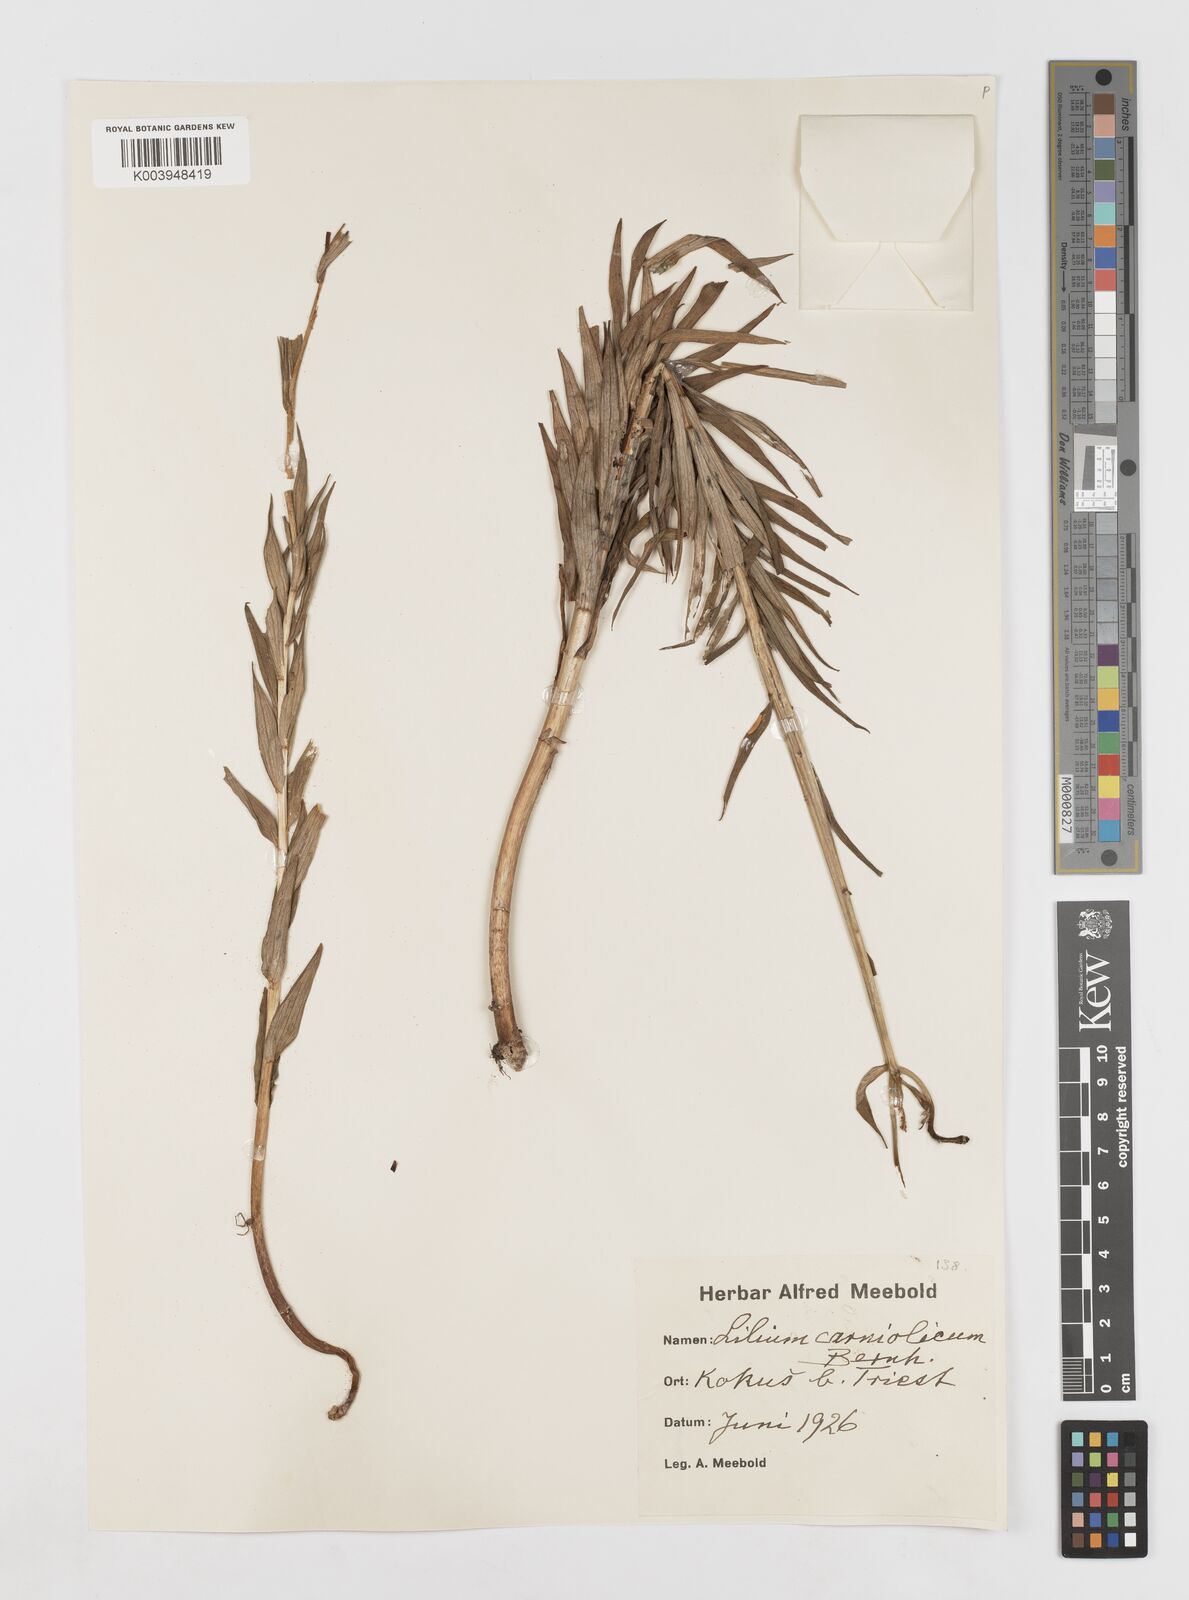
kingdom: Plantae
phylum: Tracheophyta
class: Liliopsida
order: Liliales
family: Liliaceae
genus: Lilium
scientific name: Lilium carniolicum
